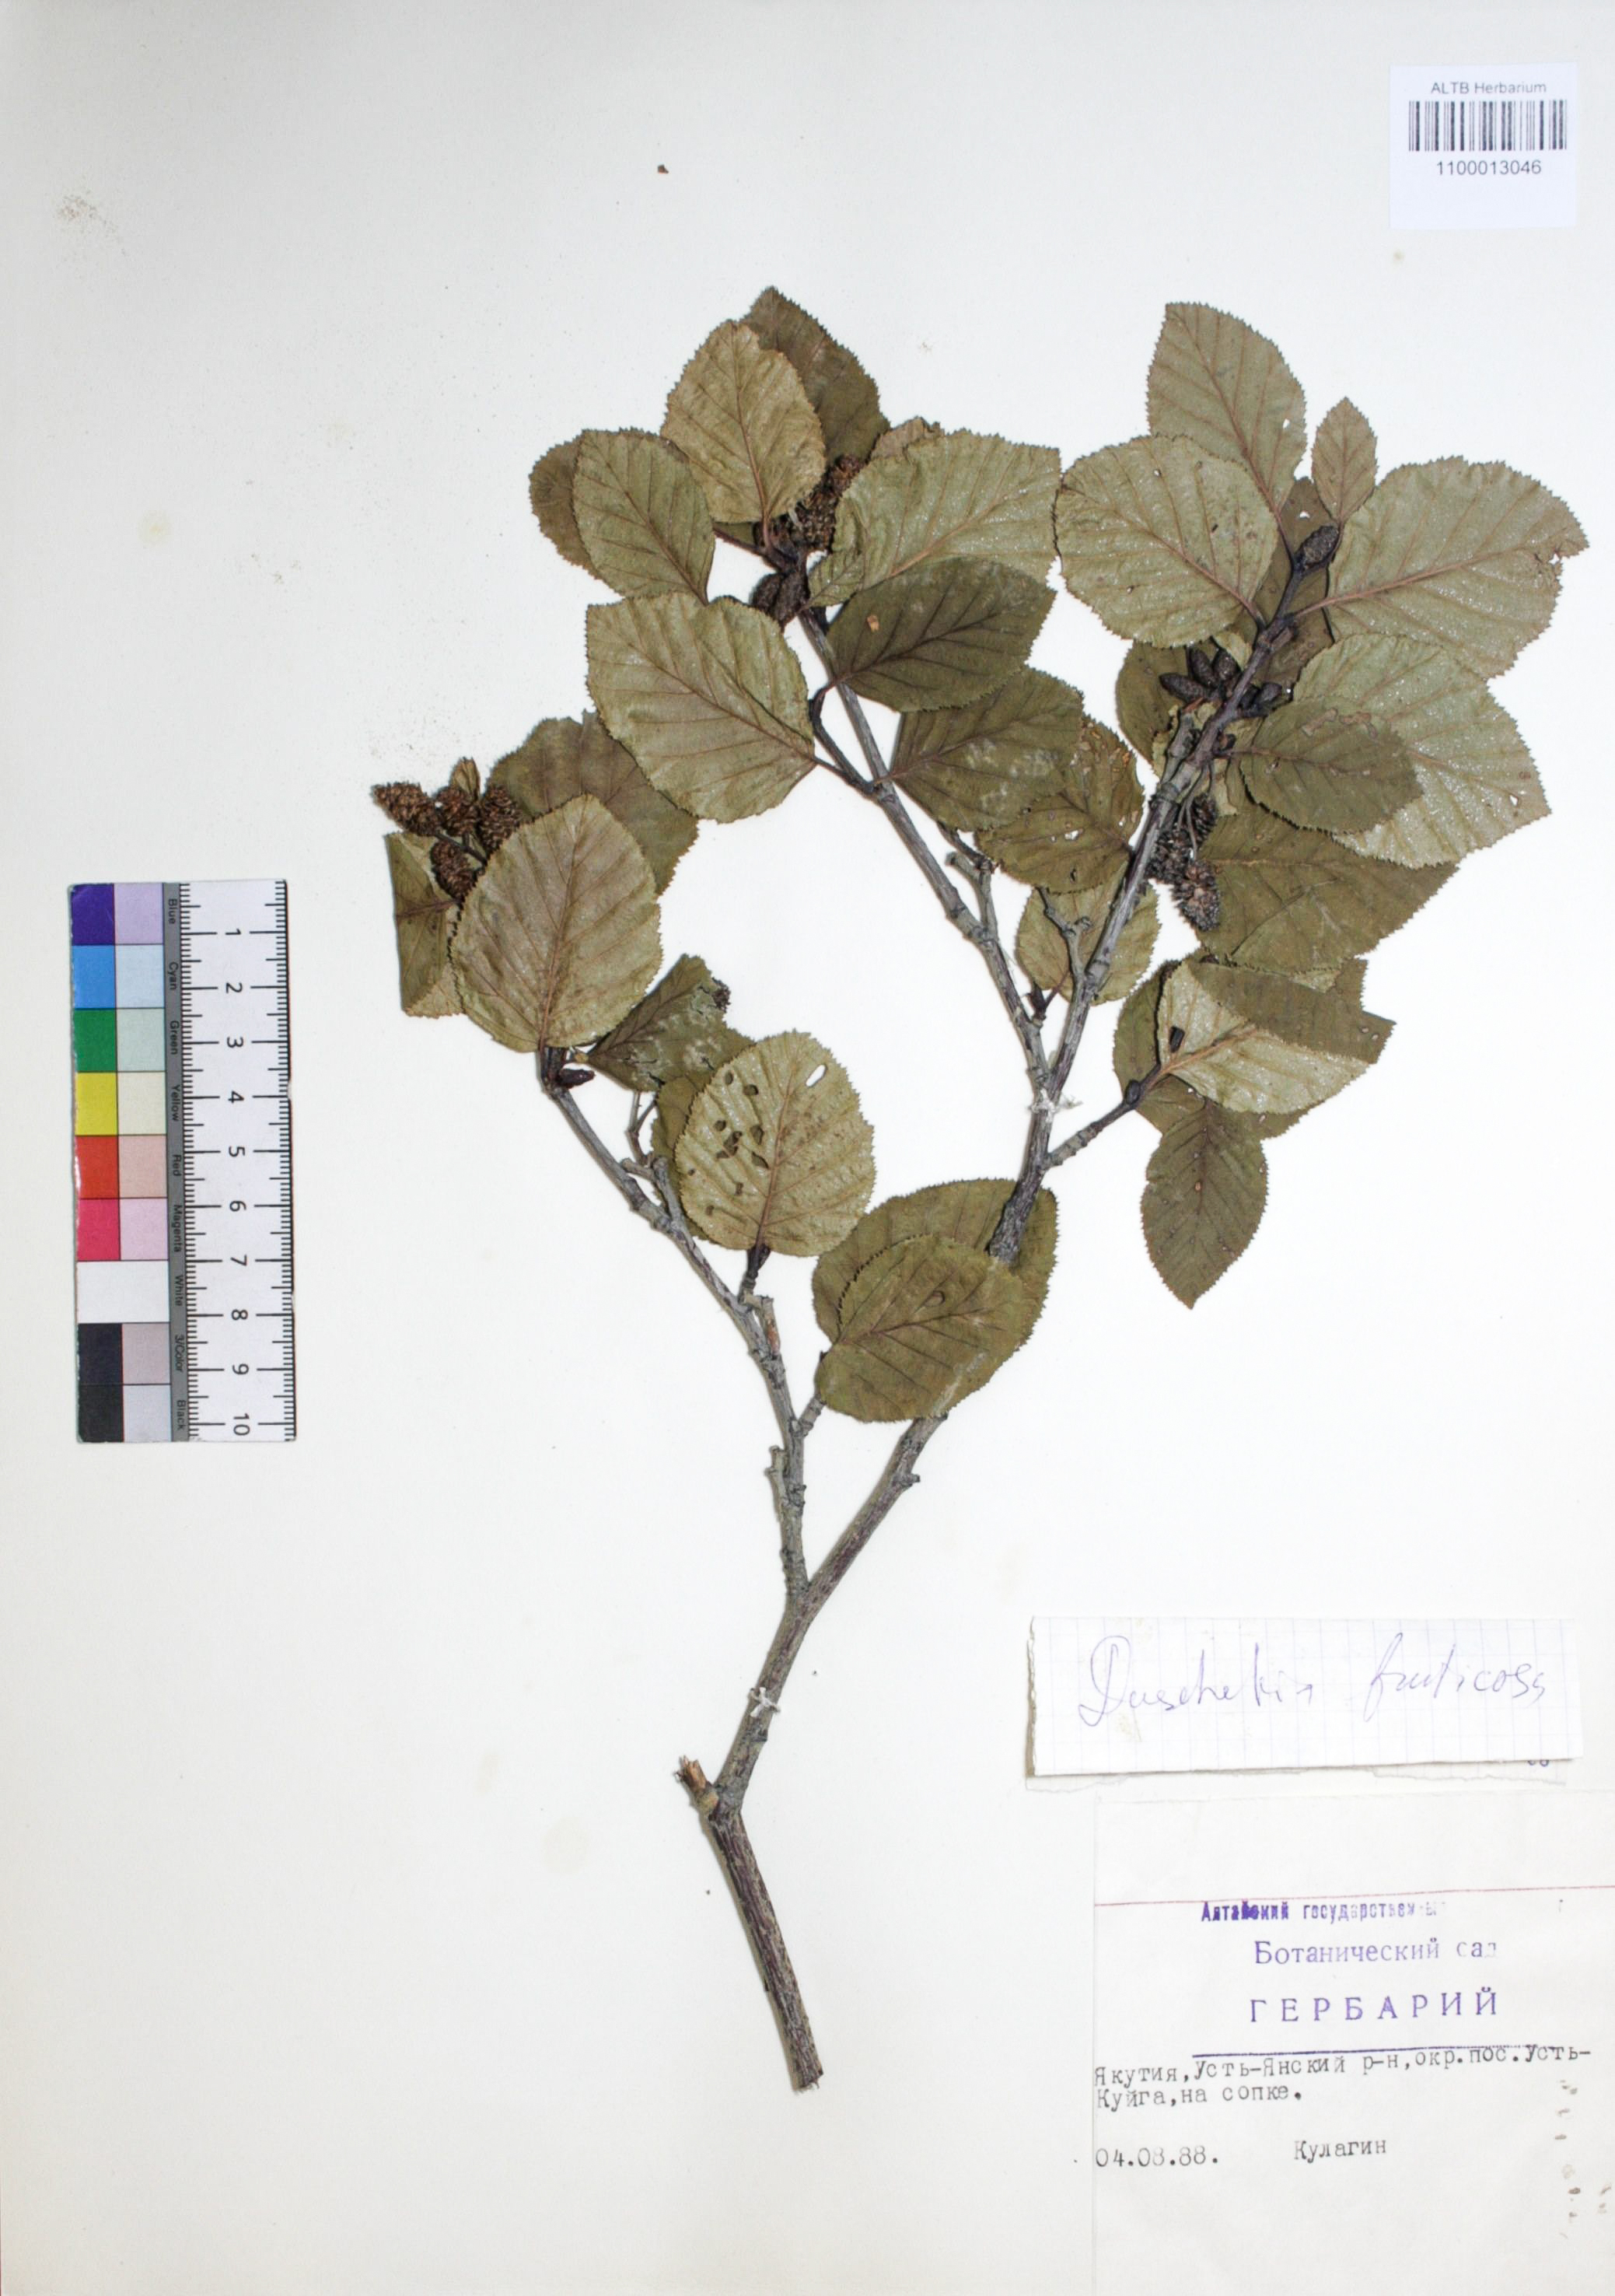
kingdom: Plantae
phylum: Tracheophyta
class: Magnoliopsida
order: Fagales
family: Betulaceae
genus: Alnus
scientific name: Alnus alnobetula
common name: Green alder
